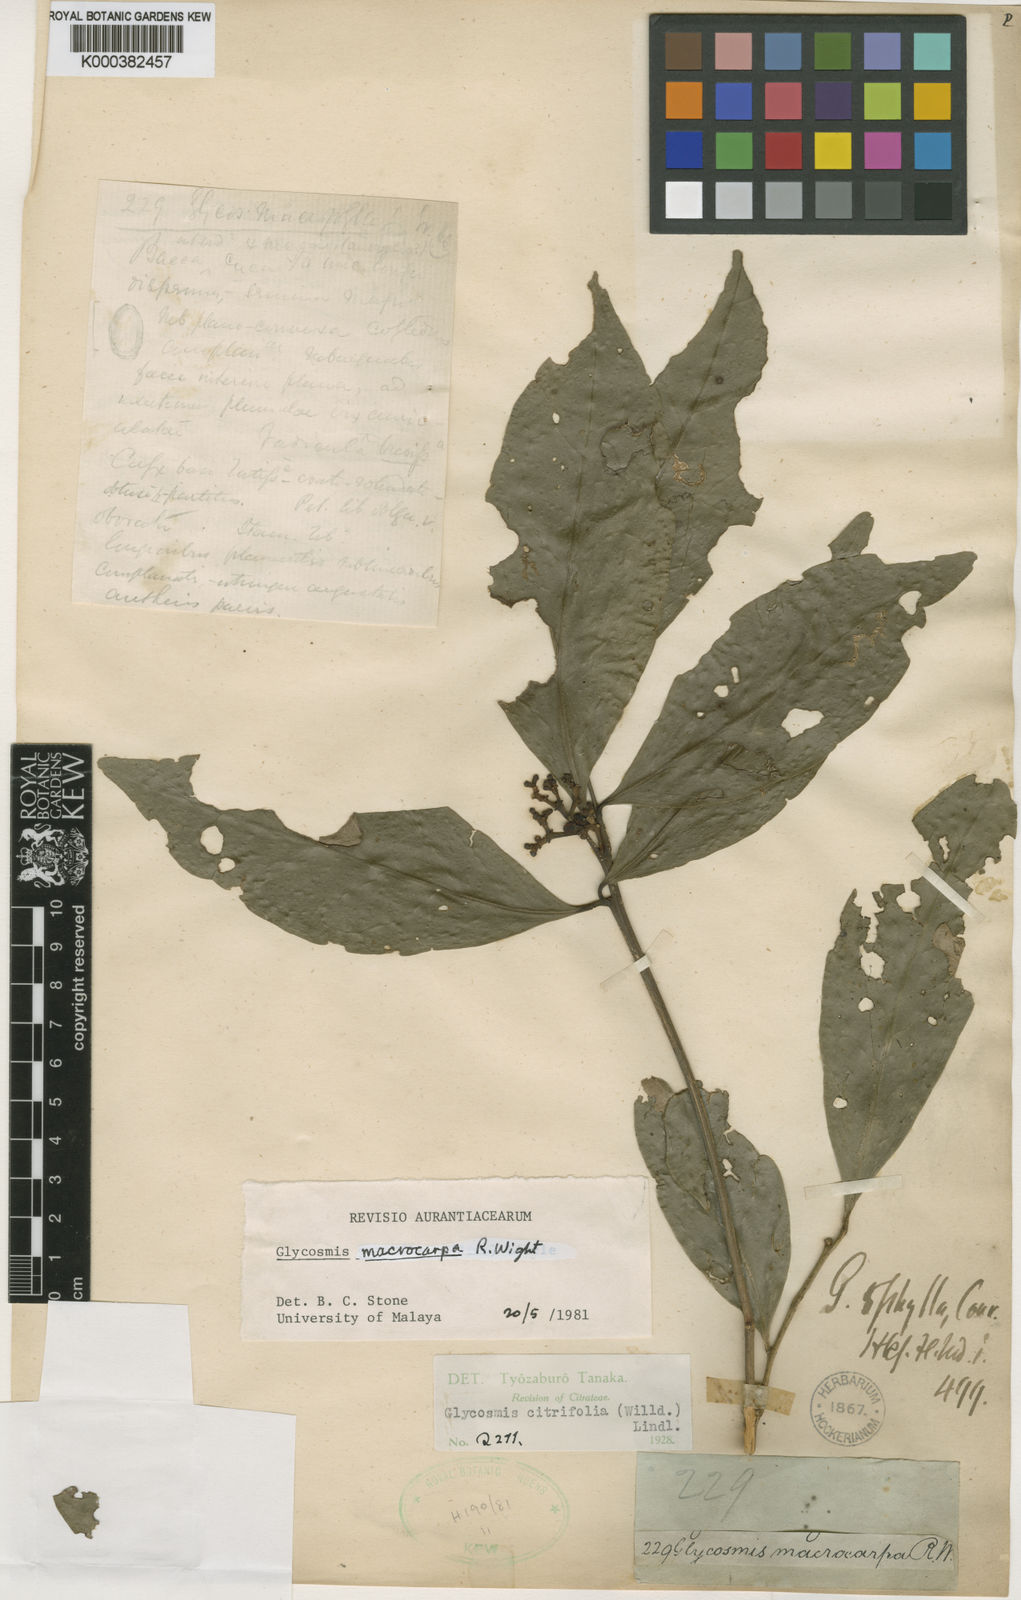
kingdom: Plantae
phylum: Tracheophyta
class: Magnoliopsida
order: Sapindales
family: Rutaceae
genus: Glycosmis
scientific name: Glycosmis macrocarpa
